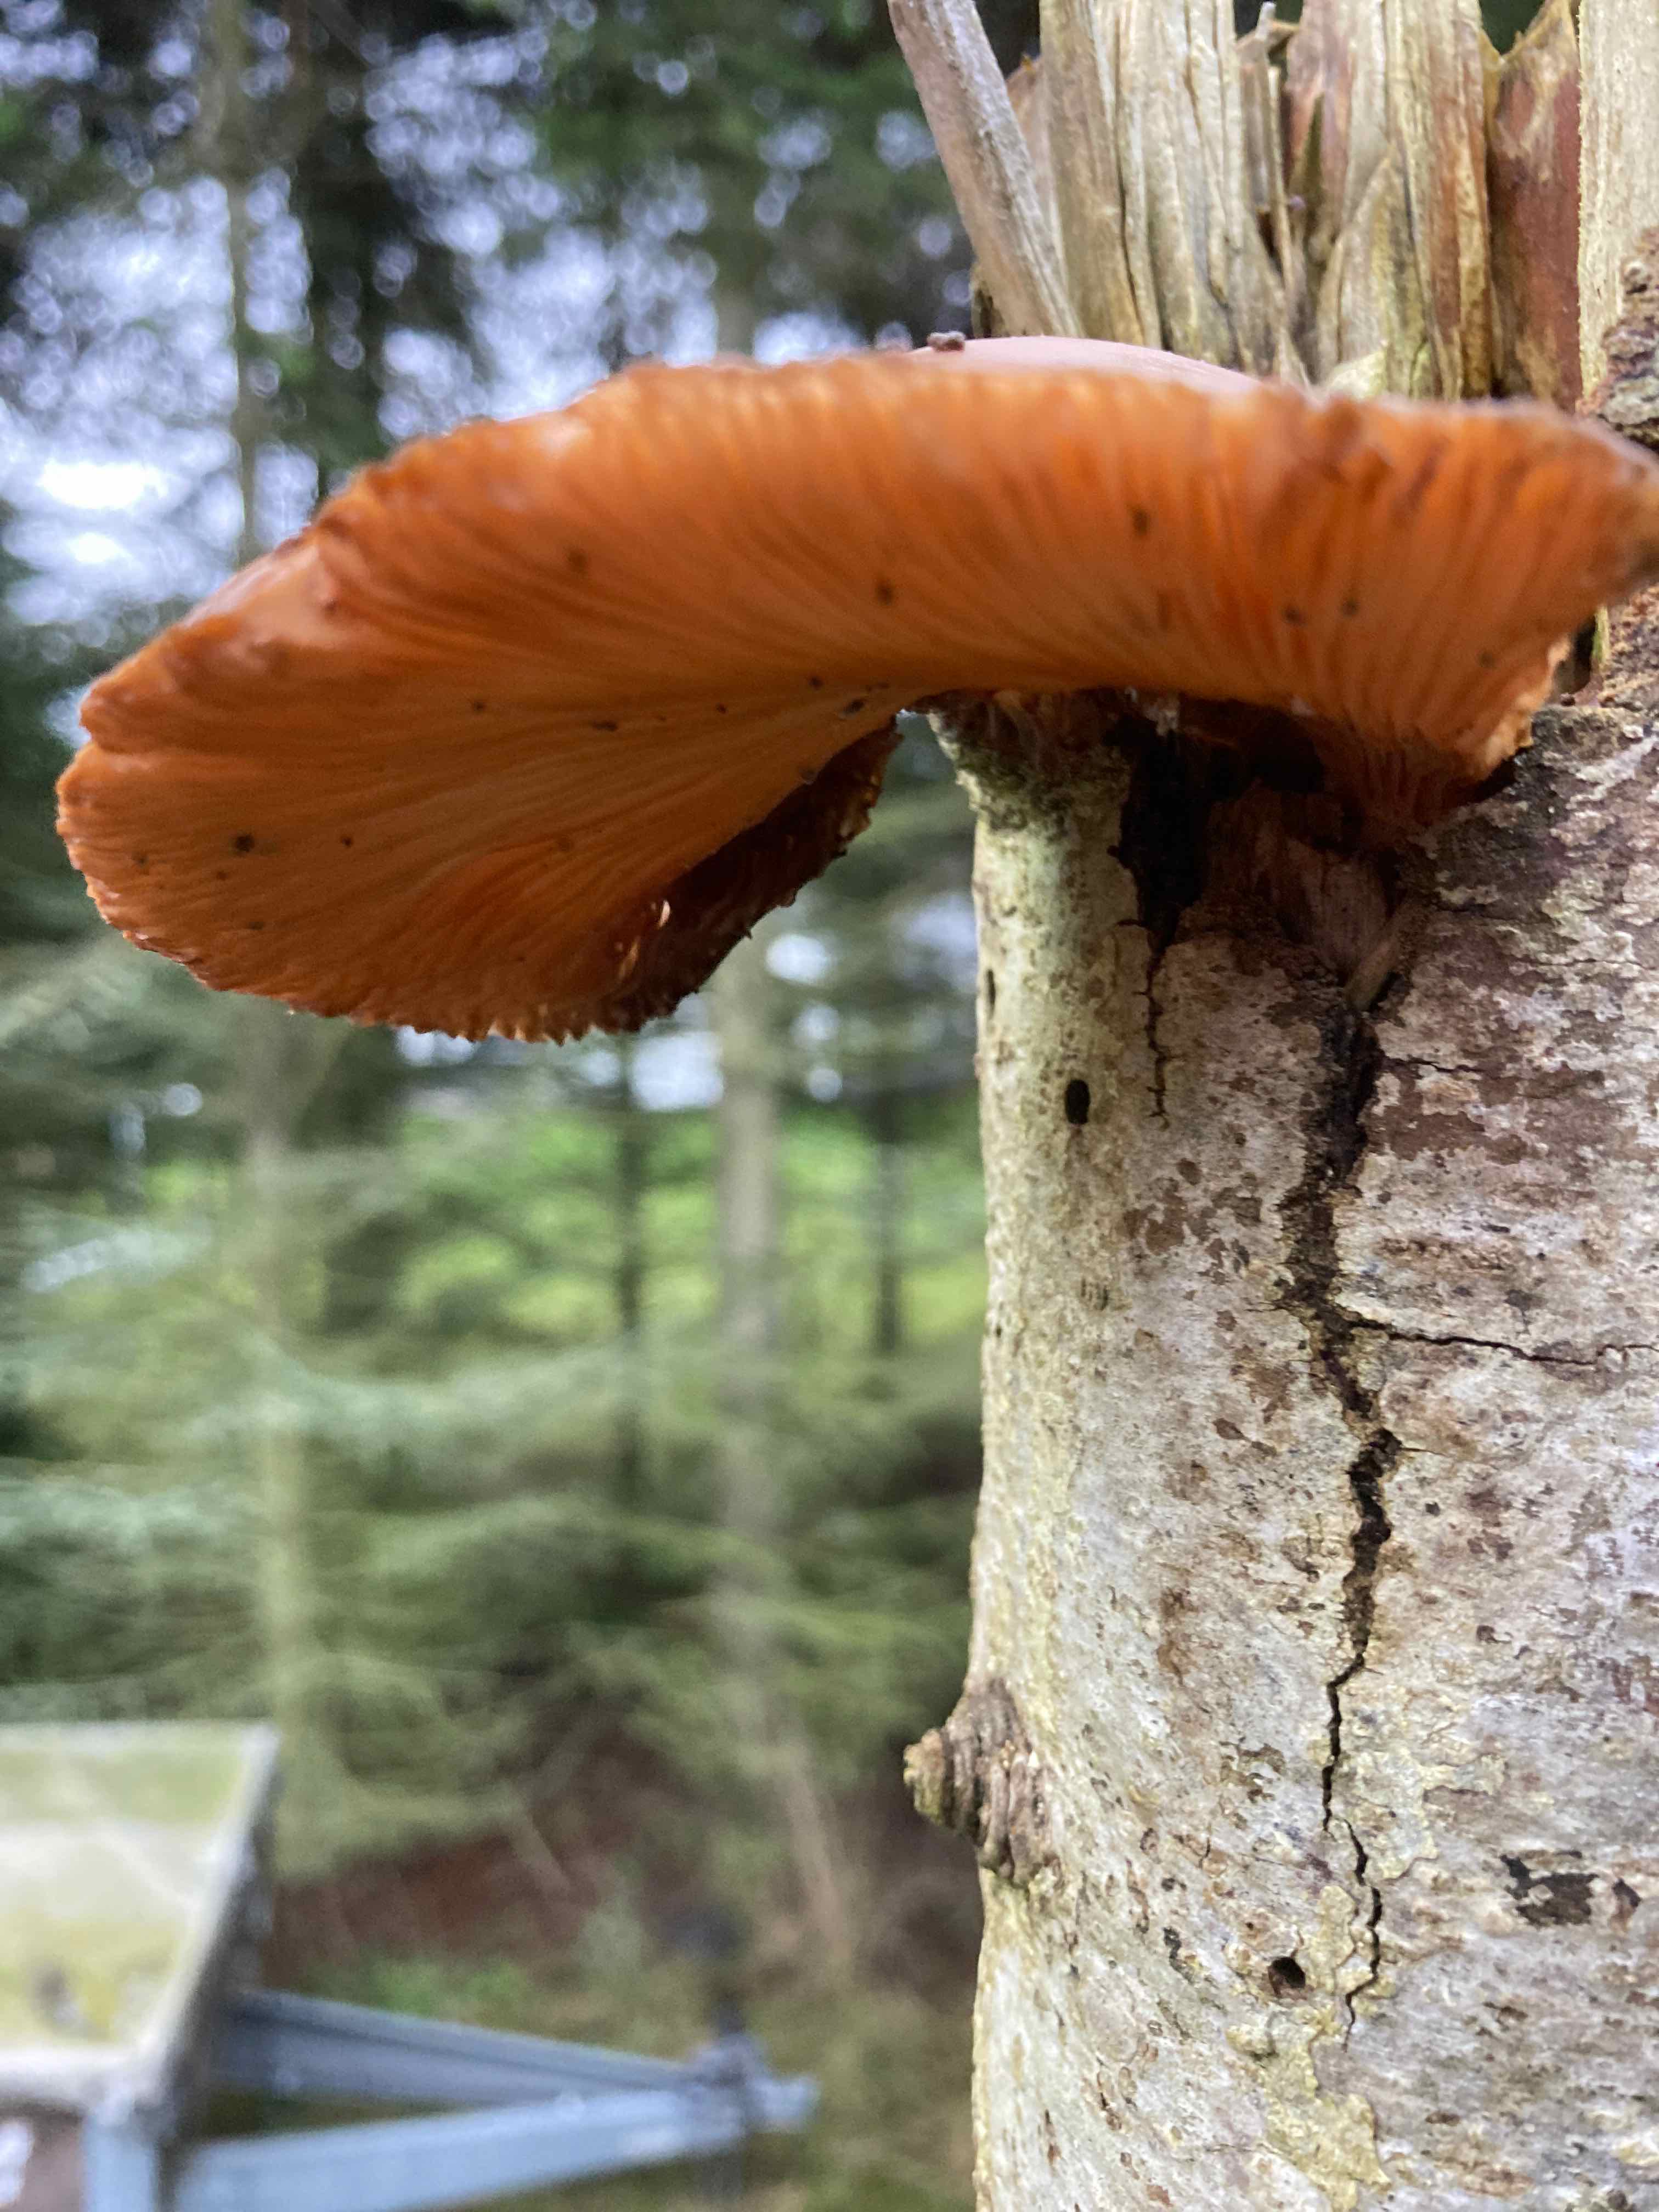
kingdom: Fungi
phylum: Basidiomycota
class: Agaricomycetes
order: Agaricales
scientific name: Agaricales
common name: champignonordenen
